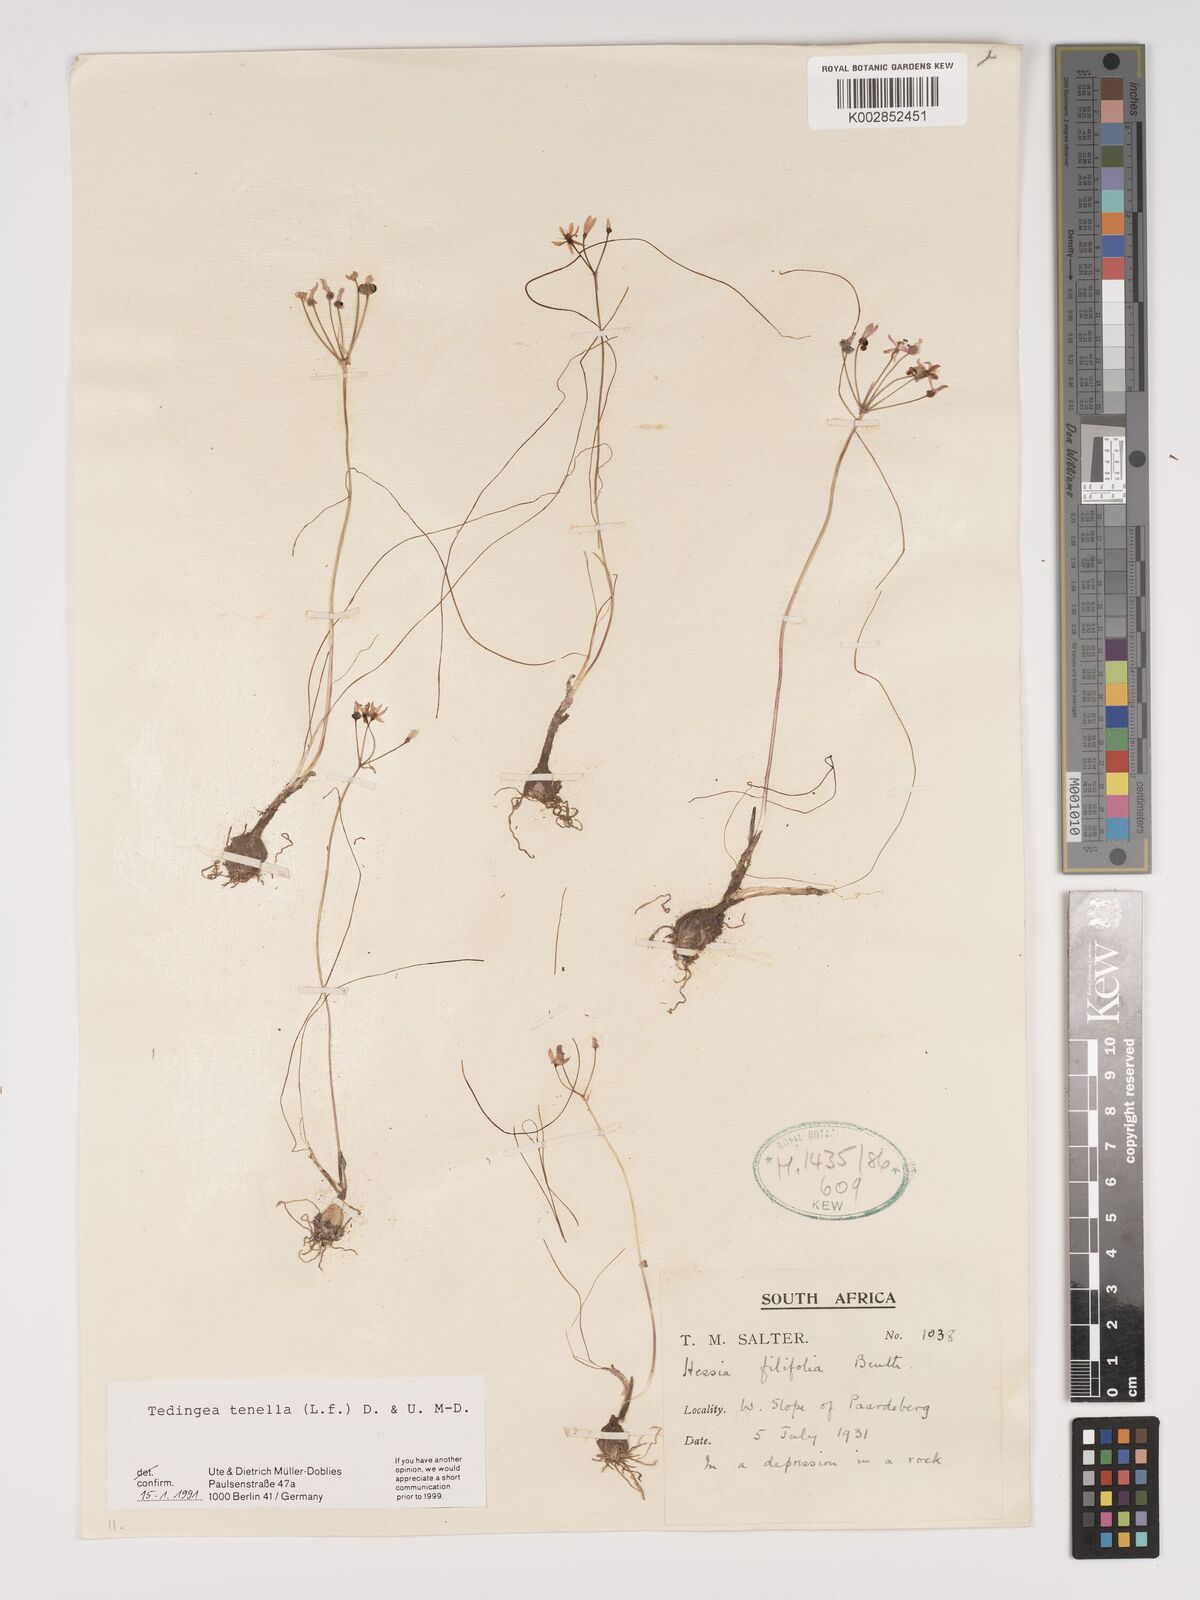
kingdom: Plantae
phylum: Tracheophyta
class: Liliopsida
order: Asparagales
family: Amaryllidaceae
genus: Strumaria
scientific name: Strumaria tenella
